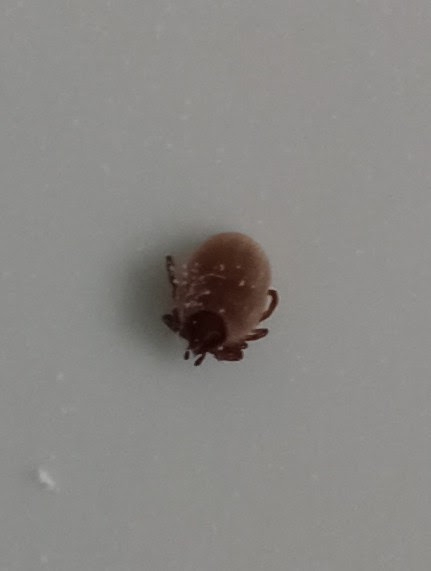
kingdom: Animalia
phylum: Arthropoda
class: Arachnida
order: Ixodida
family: Ixodidae
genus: Ixodes
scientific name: Ixodes ricinus
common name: Skovflåt
